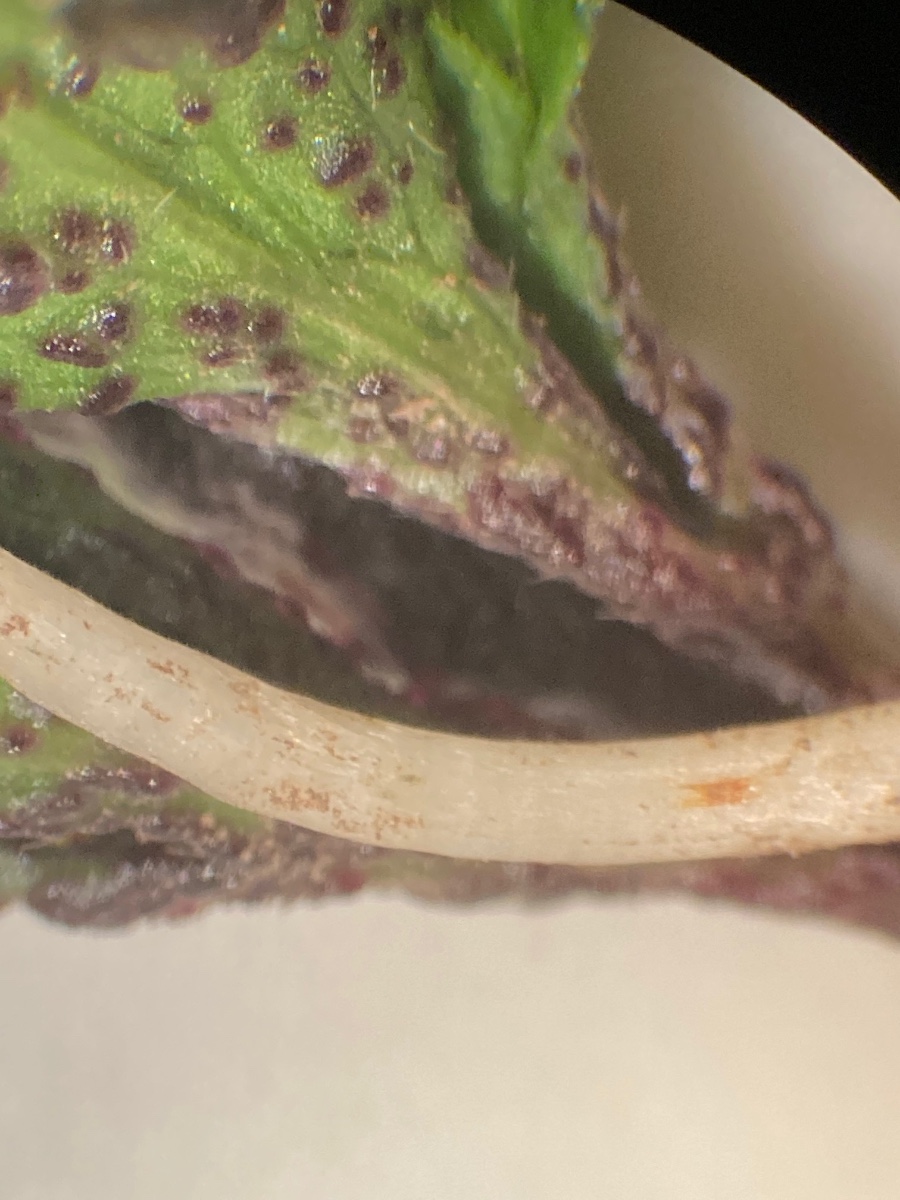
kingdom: Fungi
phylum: Chytridiomycota
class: Chytridiomycetes
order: Chytridiales
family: Synchytriaceae
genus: Synchytrium
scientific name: Synchytrium anemones
